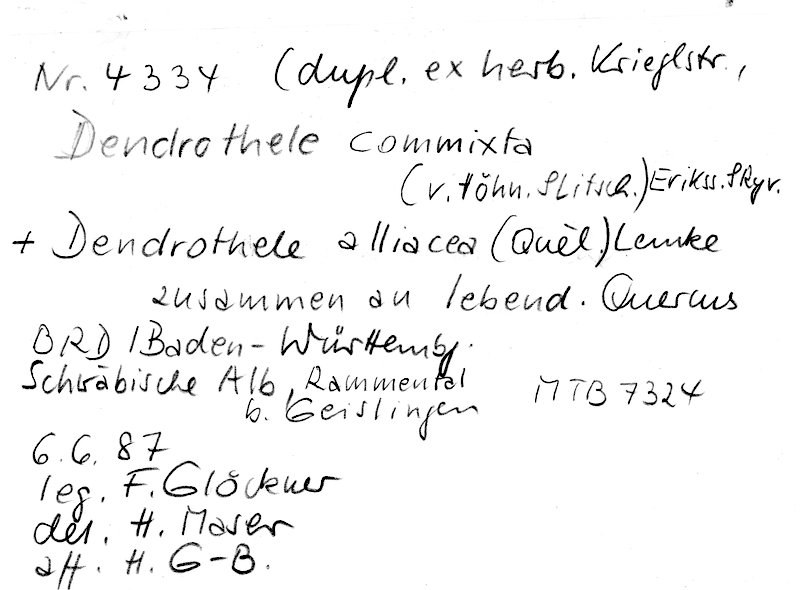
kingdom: Fungi
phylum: Basidiomycota
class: Agaricomycetes
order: Agaricales
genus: Dendrothele
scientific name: Dendrothele commixta
